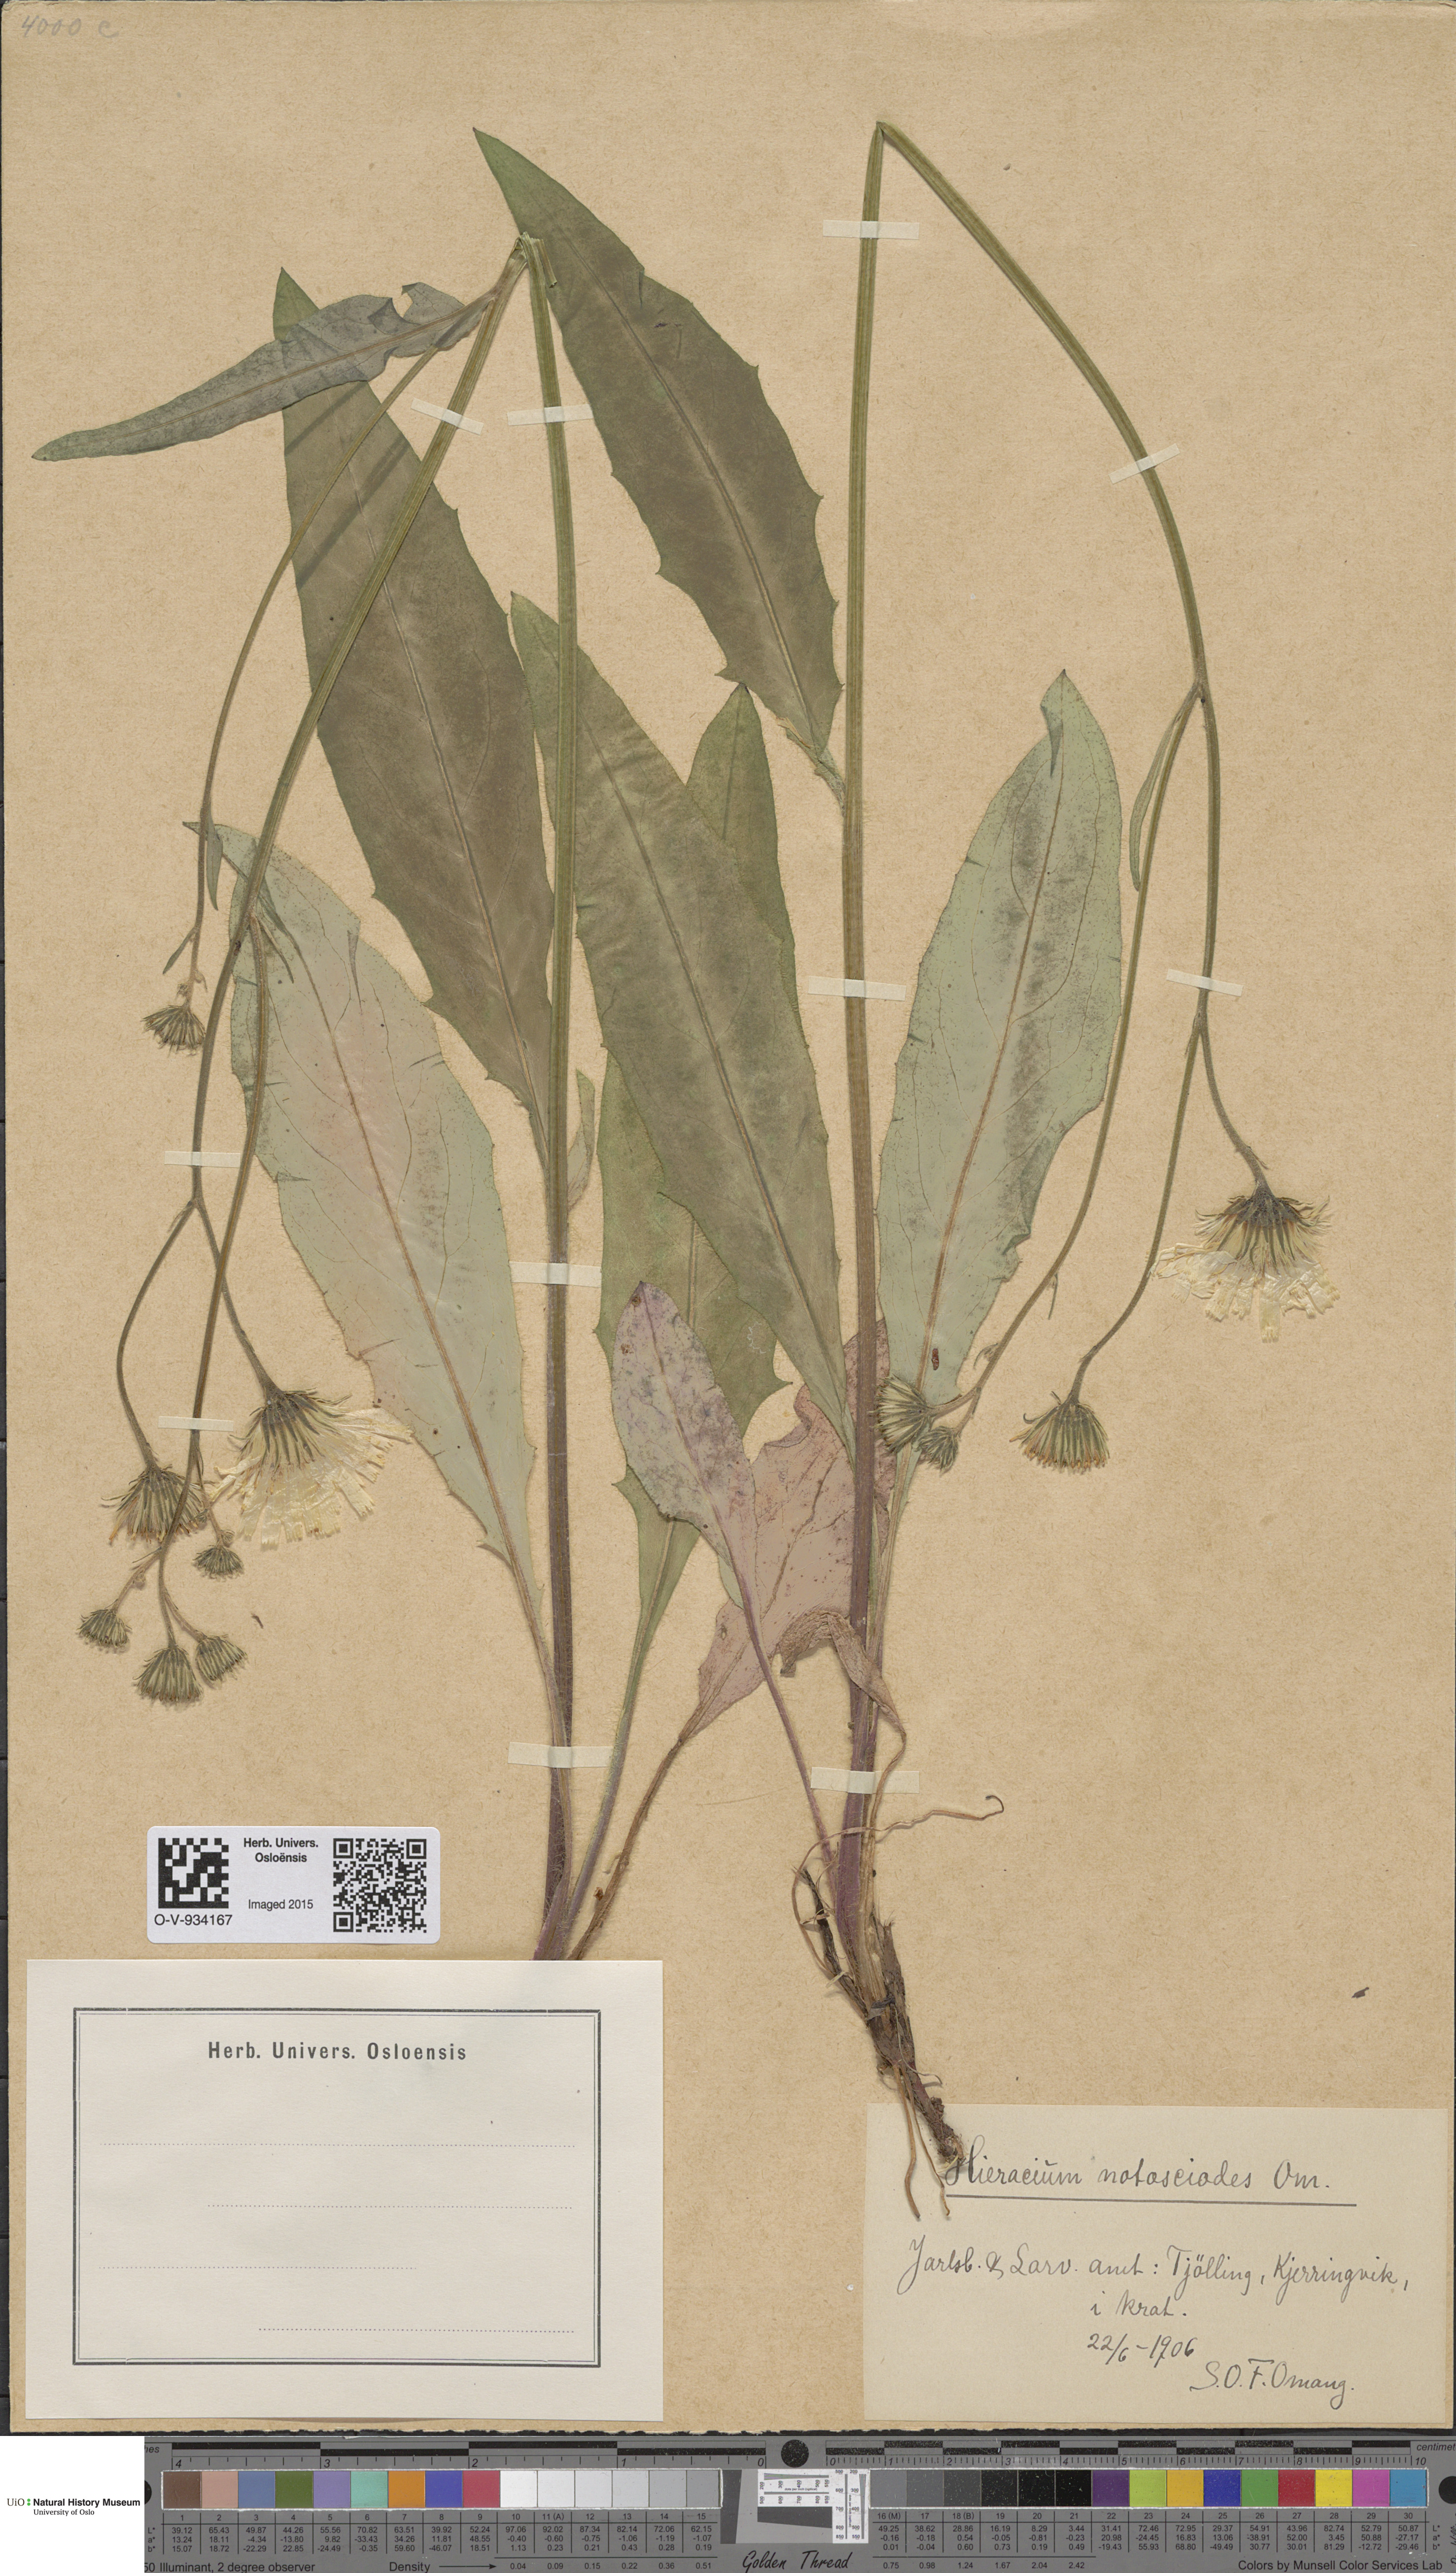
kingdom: Plantae
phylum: Tracheophyta
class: Magnoliopsida
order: Asterales
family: Asteraceae
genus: Hieracium
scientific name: Hieracium saxifragum
